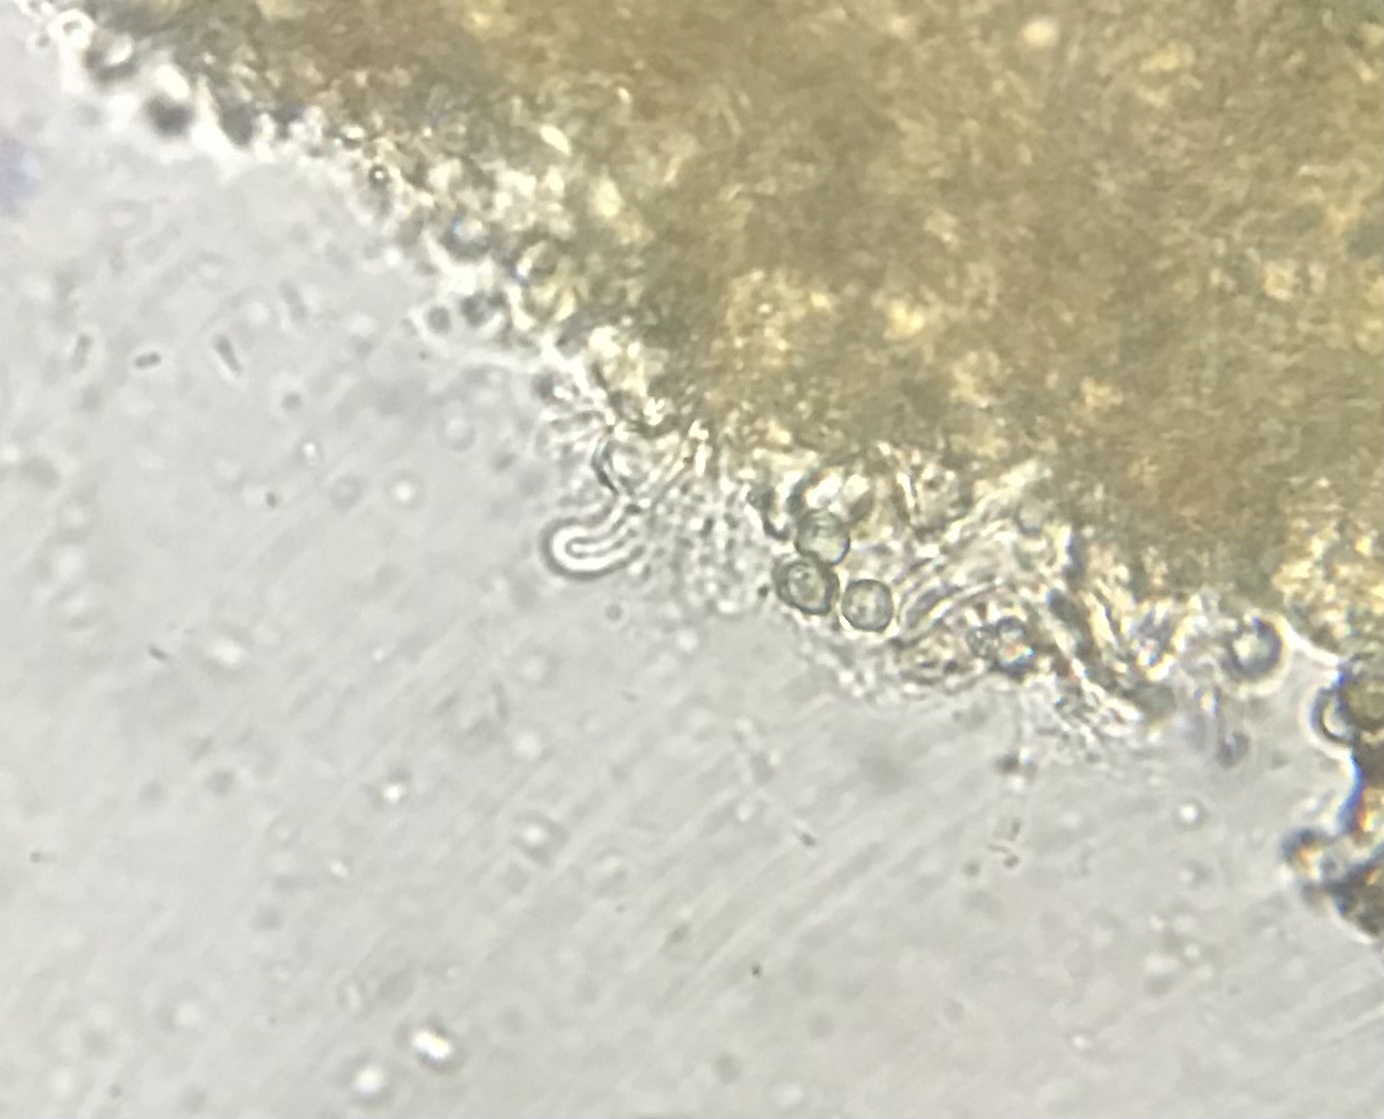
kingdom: Fungi
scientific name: Fungi
